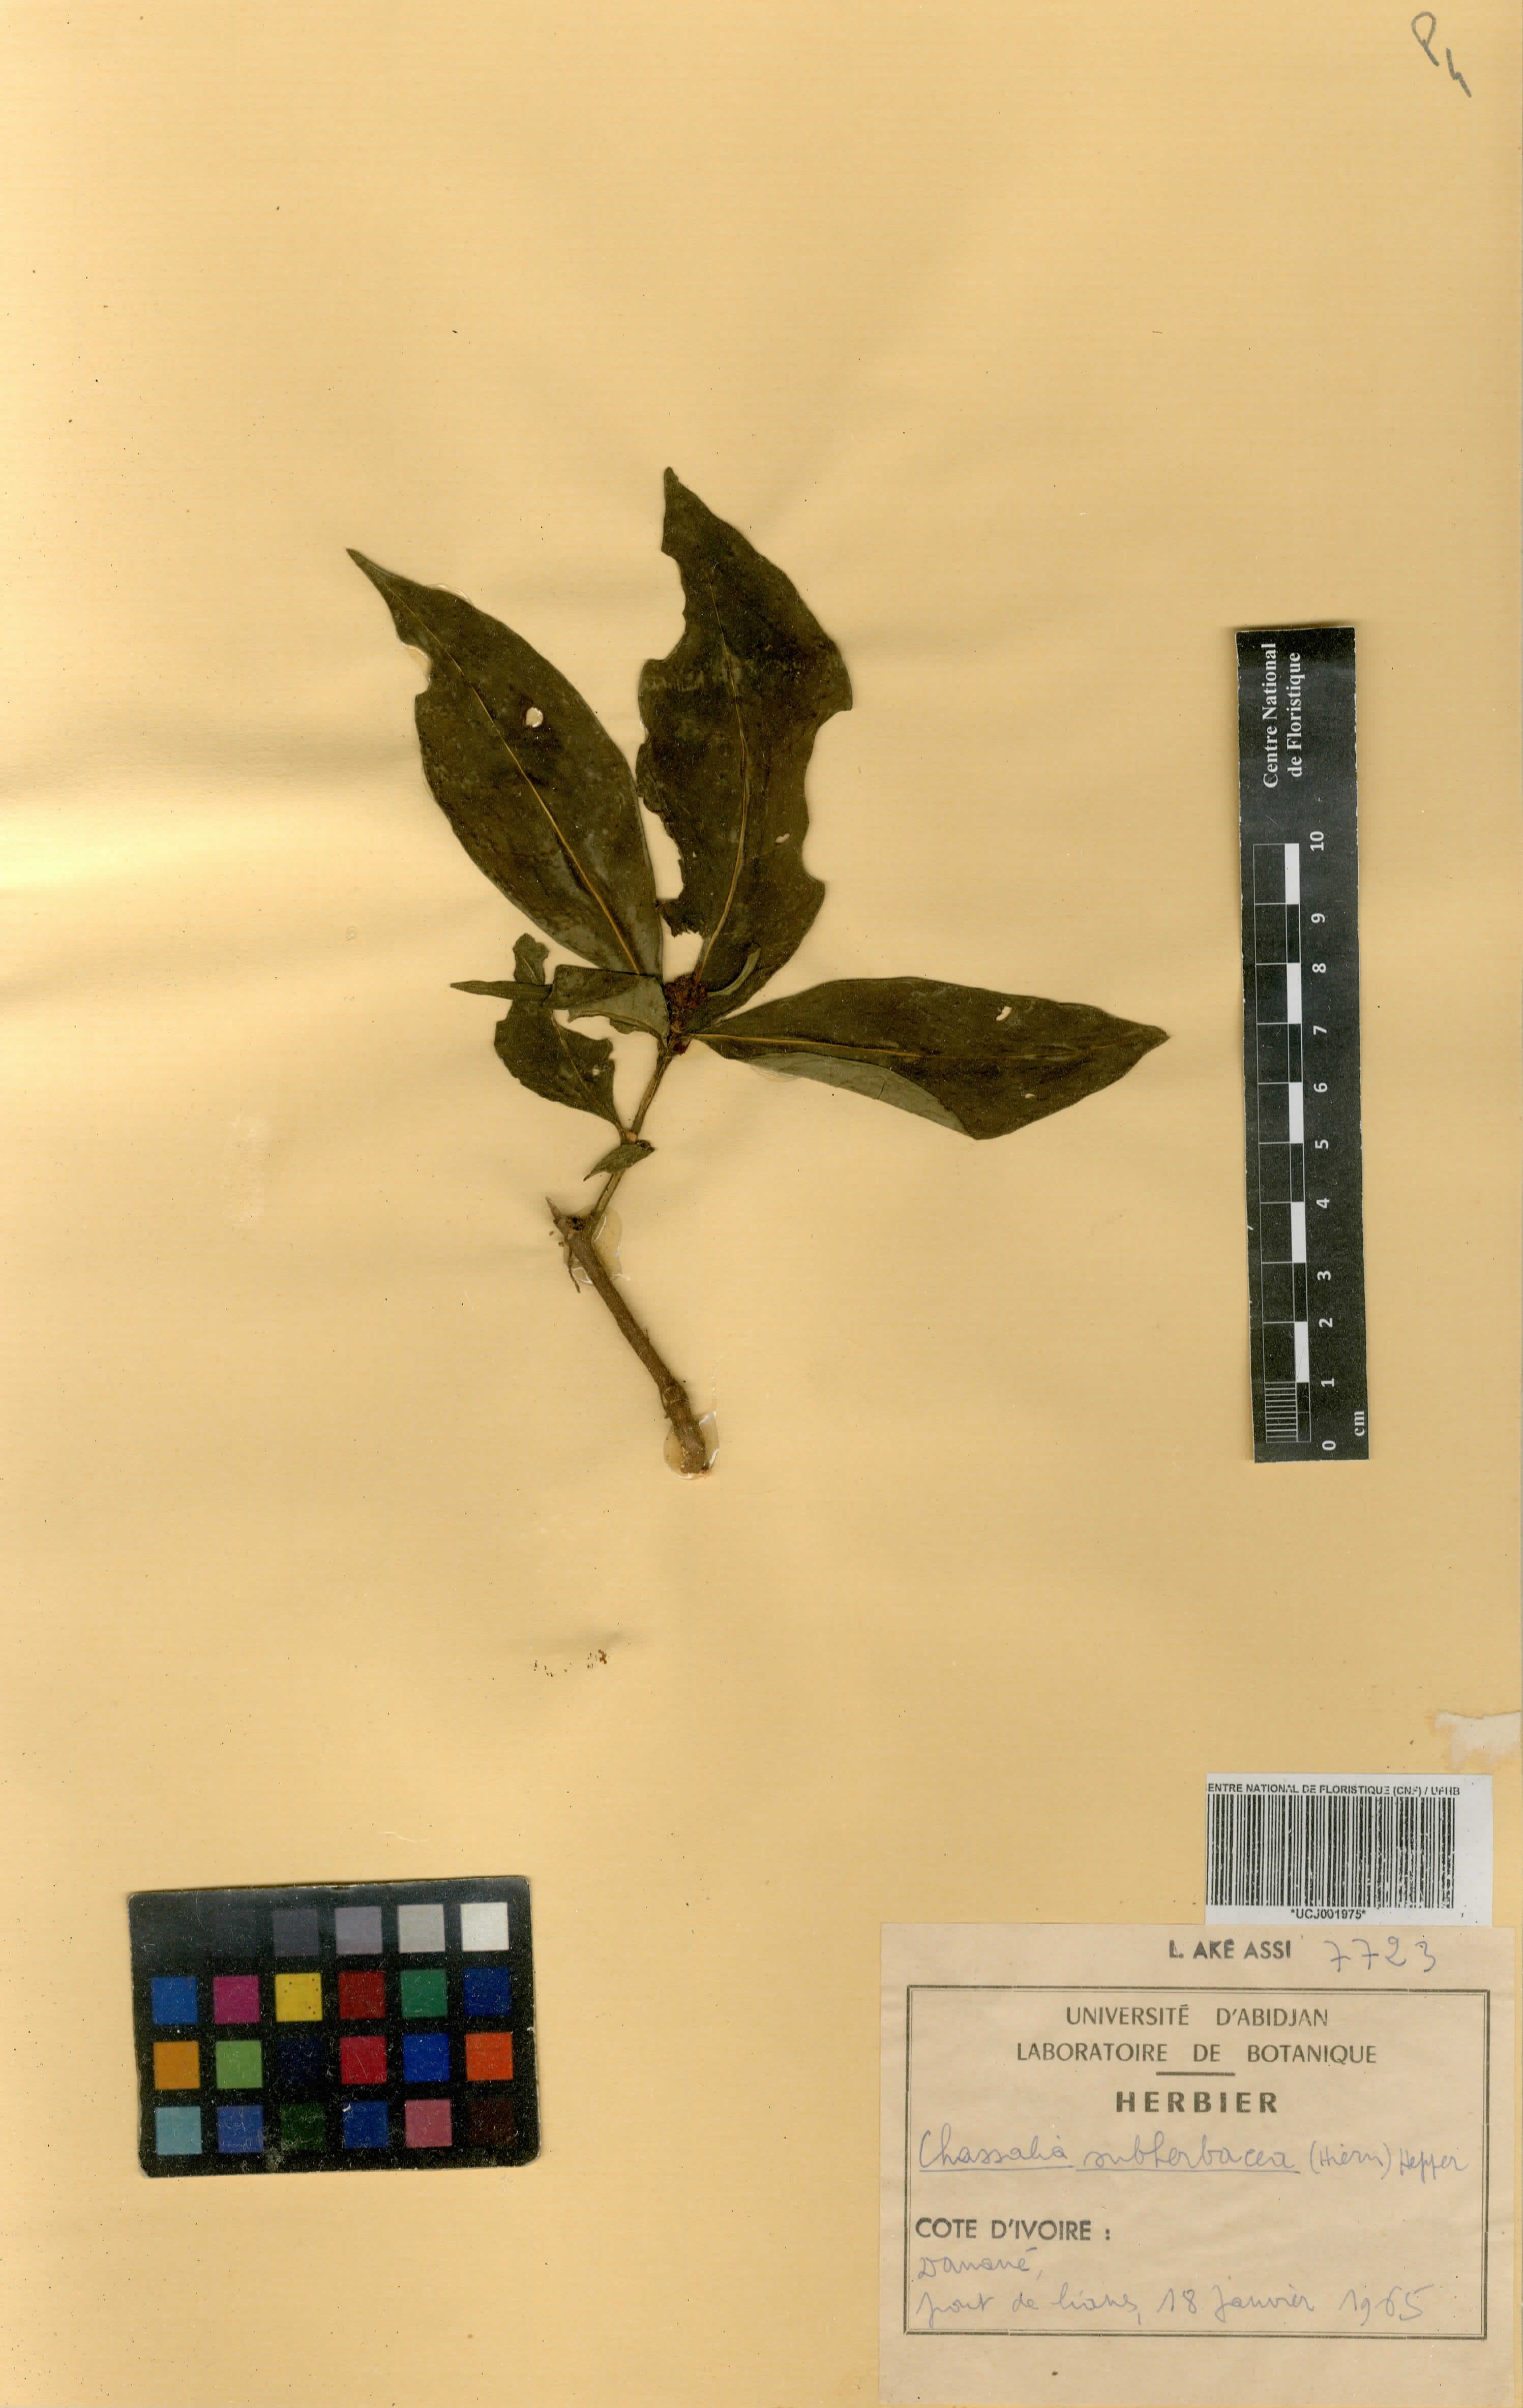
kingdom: Plantae
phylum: Tracheophyta
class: Magnoliopsida
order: Gentianales
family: Rubiaceae
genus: Chassalia
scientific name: Chassalia subherbacea
